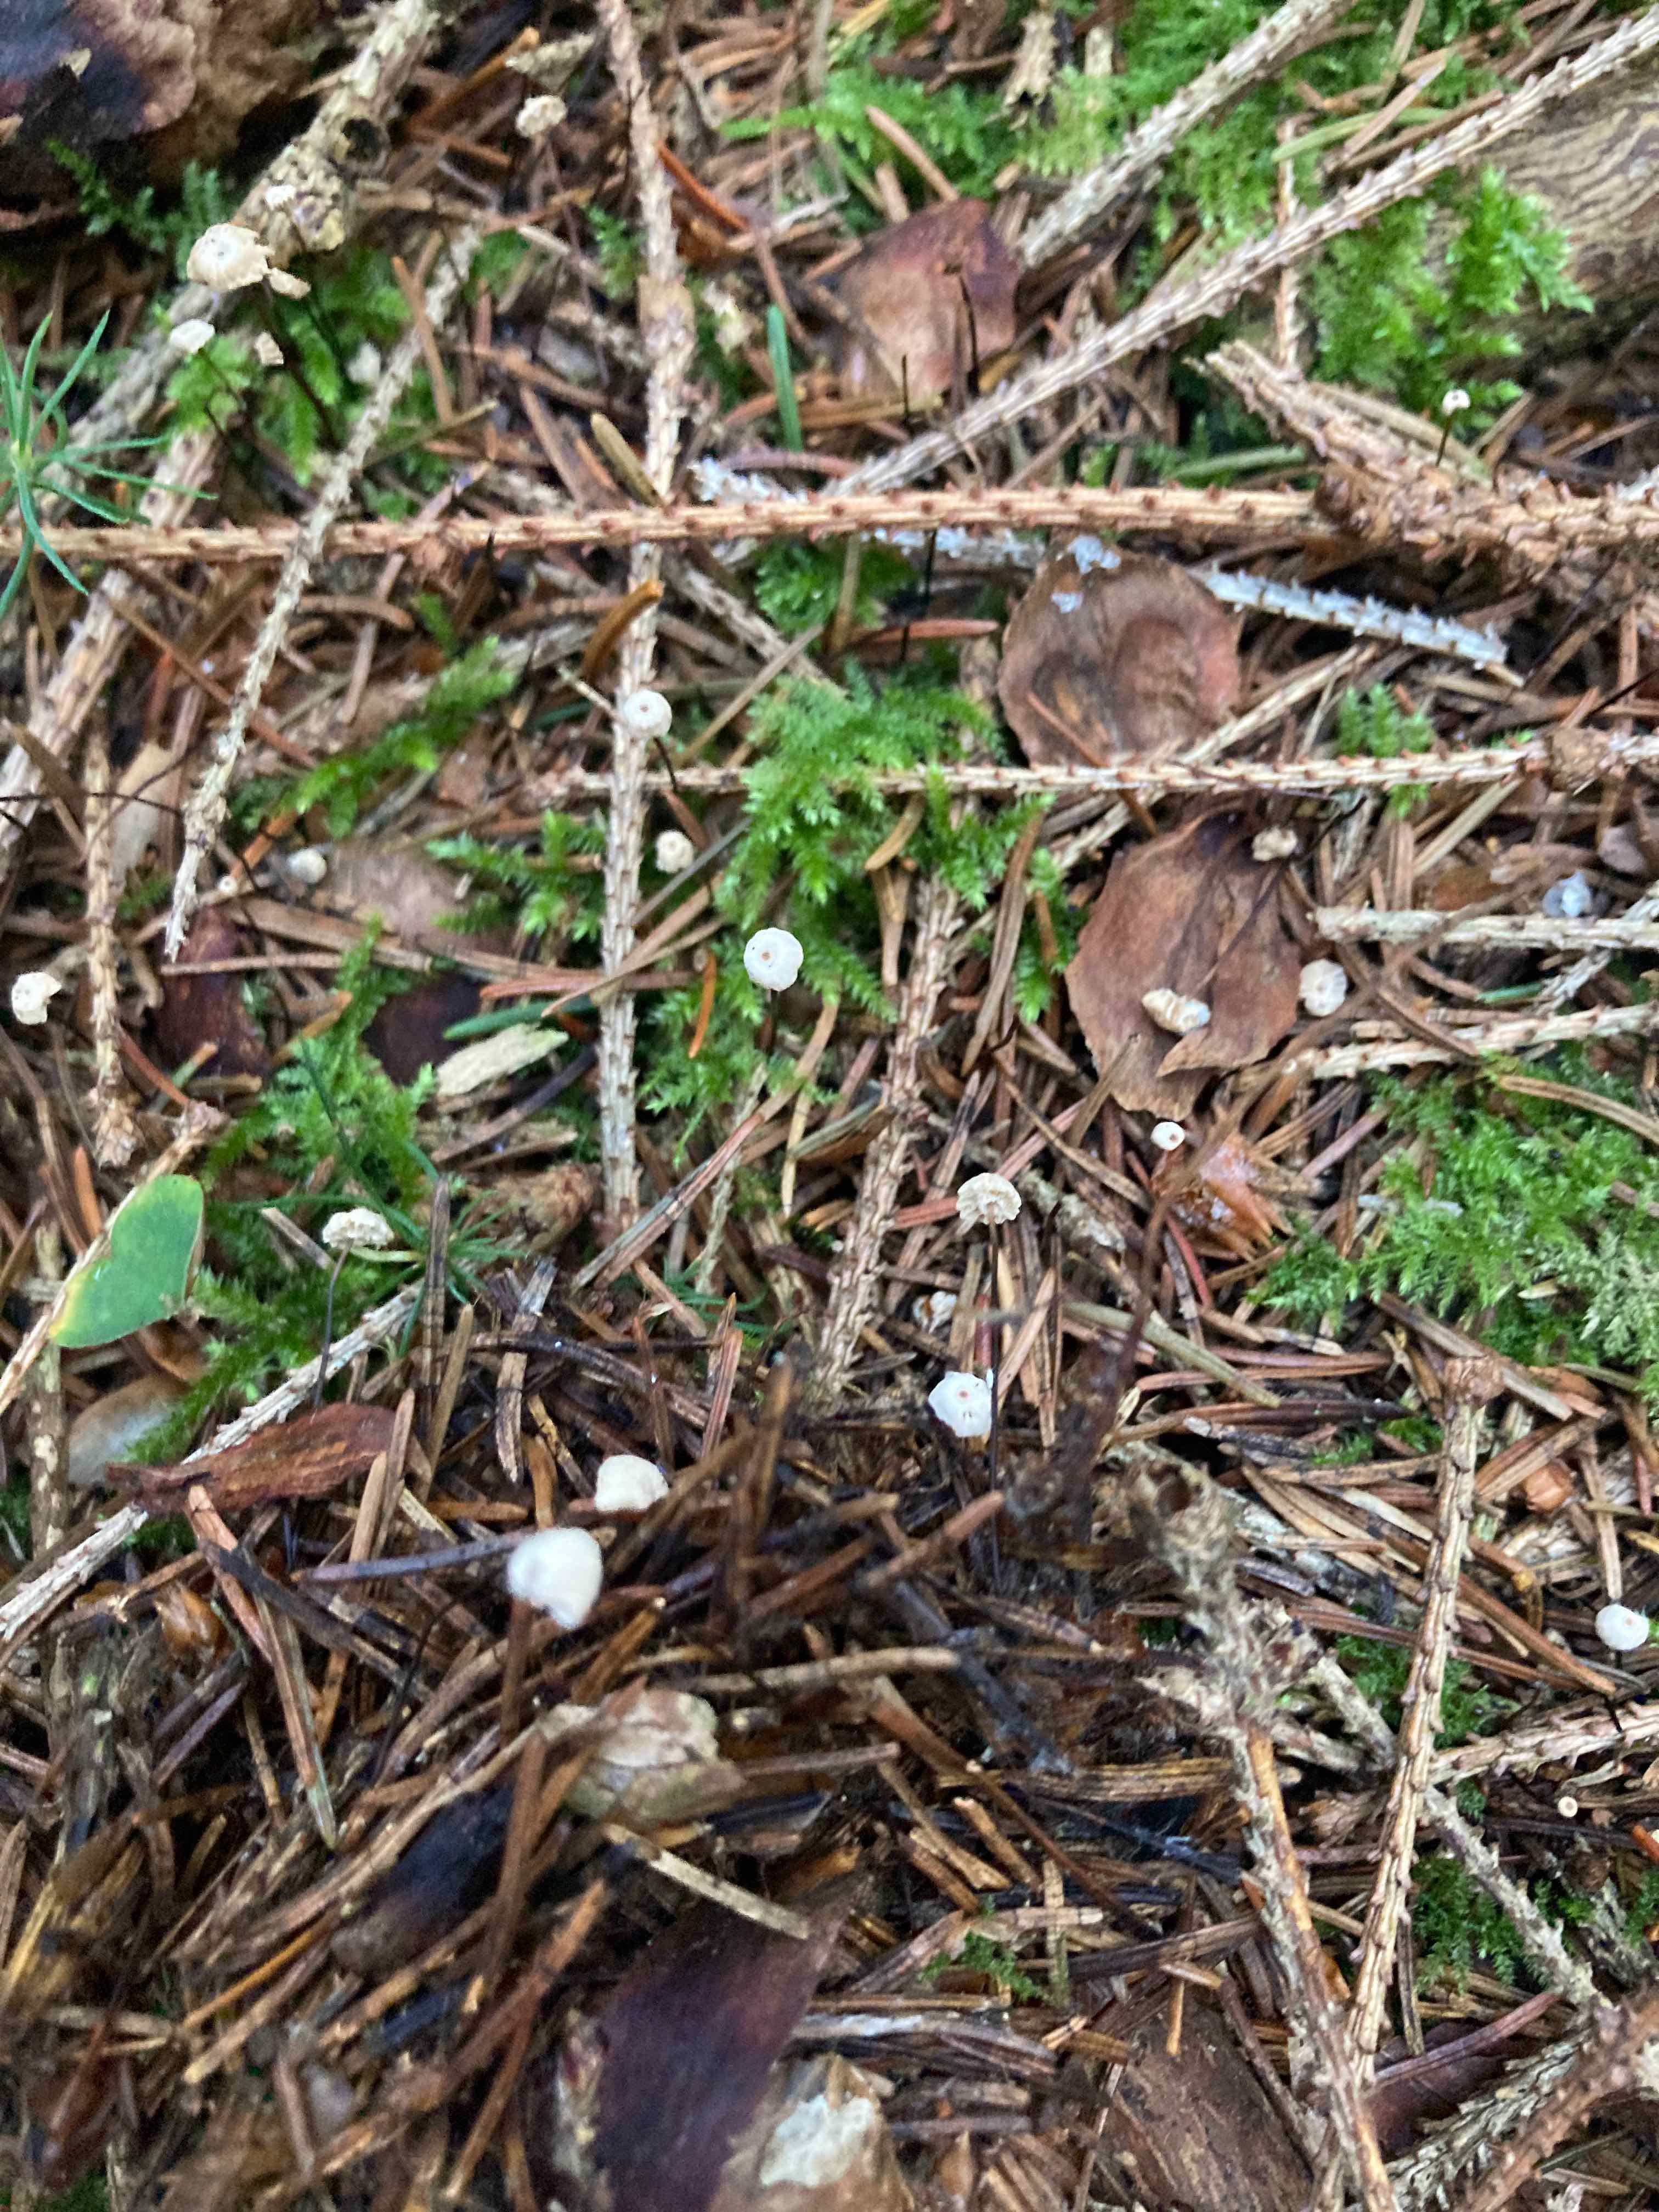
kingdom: Fungi
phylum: Basidiomycota
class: Agaricomycetes
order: Agaricales
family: Marasmiaceae
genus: Marasmius
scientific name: Marasmius wettsteinii
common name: Wettsteins bruskhat
